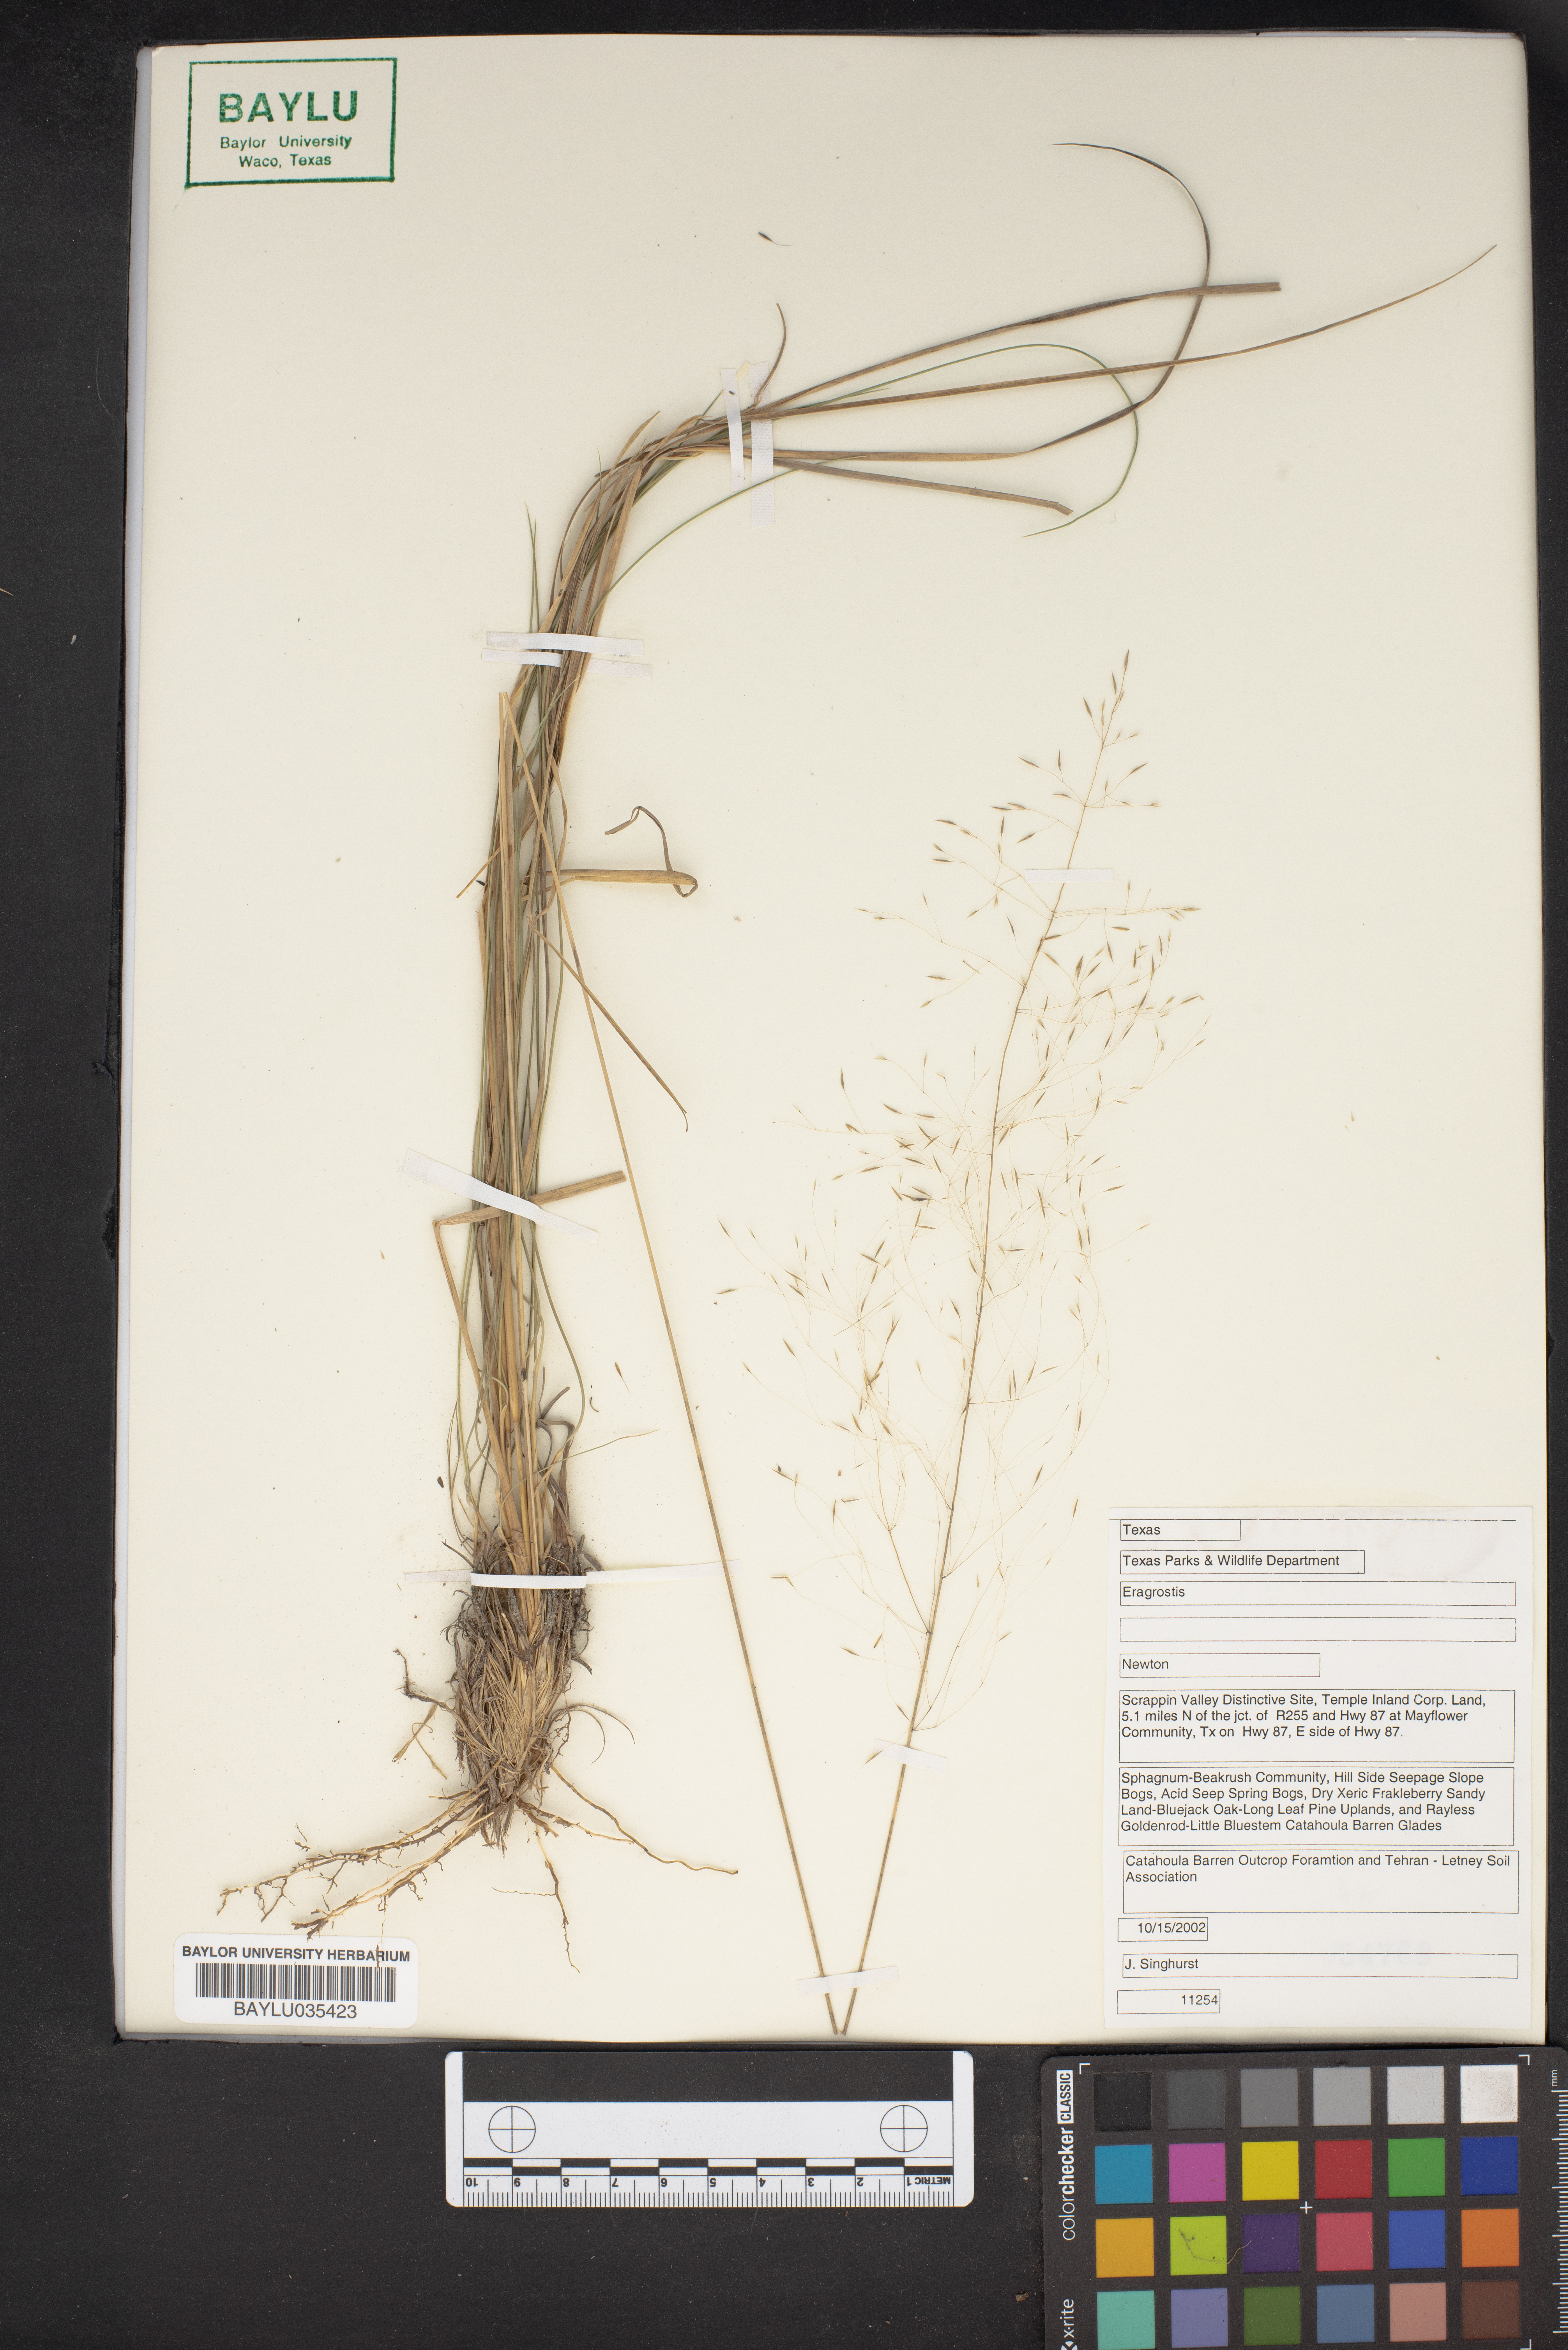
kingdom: Plantae
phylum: Tracheophyta
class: Liliopsida
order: Poales
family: Poaceae
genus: Eragrostis
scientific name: Eragrostis
